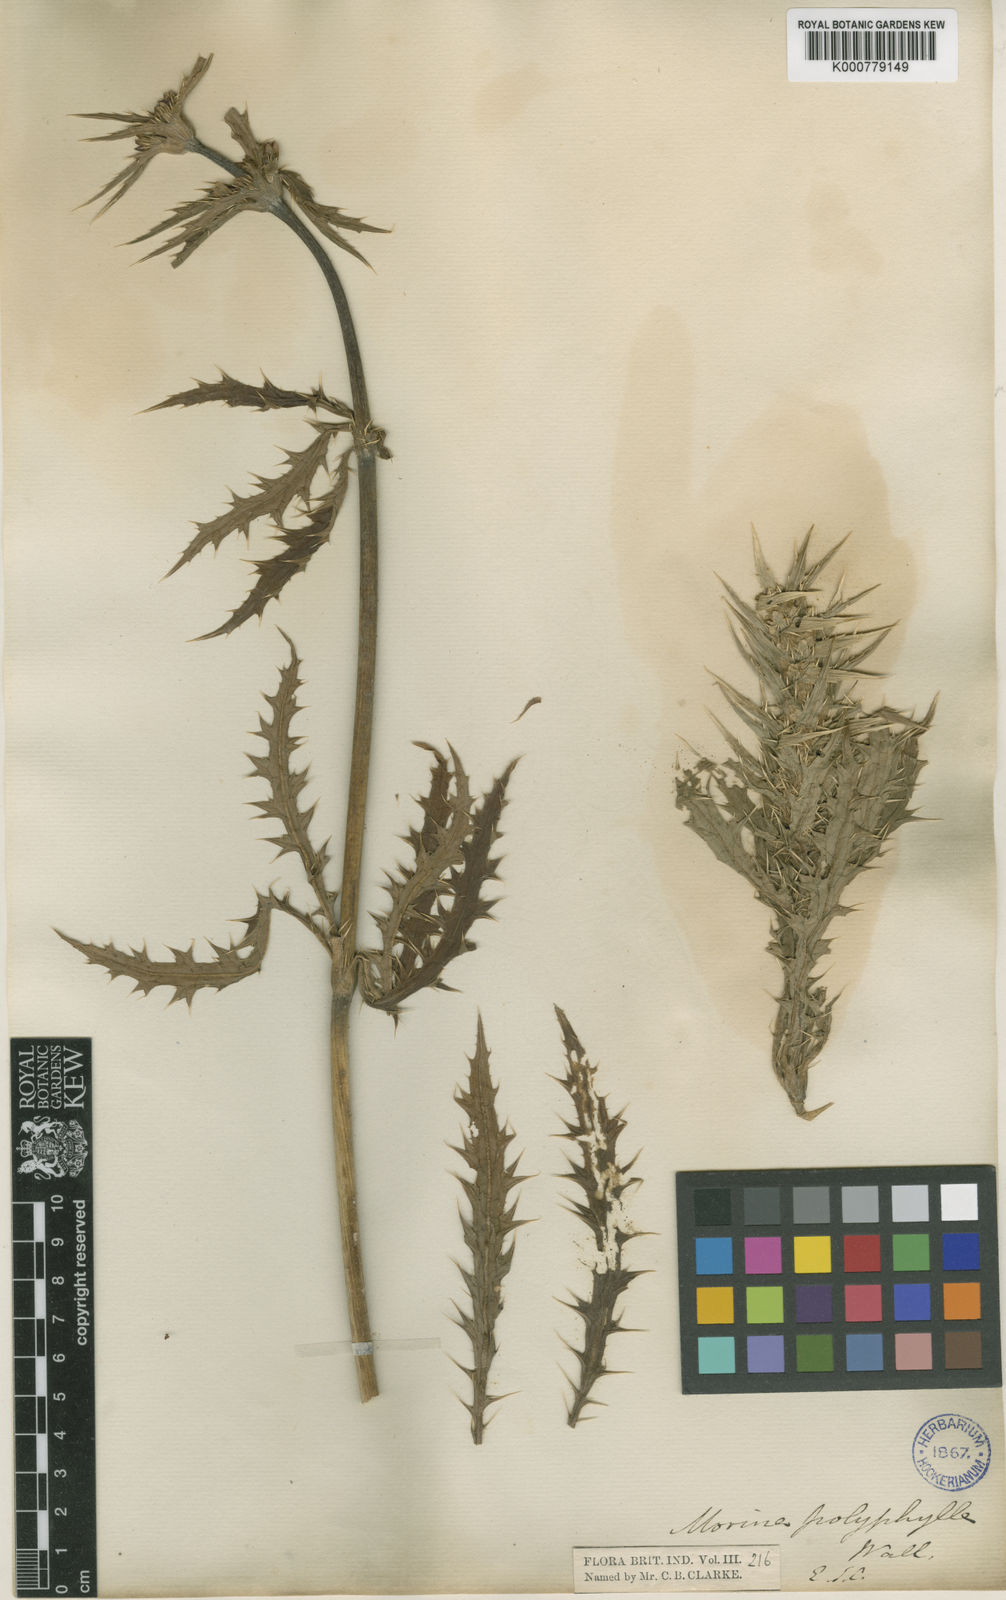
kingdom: Plantae
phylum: Tracheophyta
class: Magnoliopsida
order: Dipsacales
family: Caprifoliaceae
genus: Cryptothladia
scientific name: Cryptothladia polyphylla
